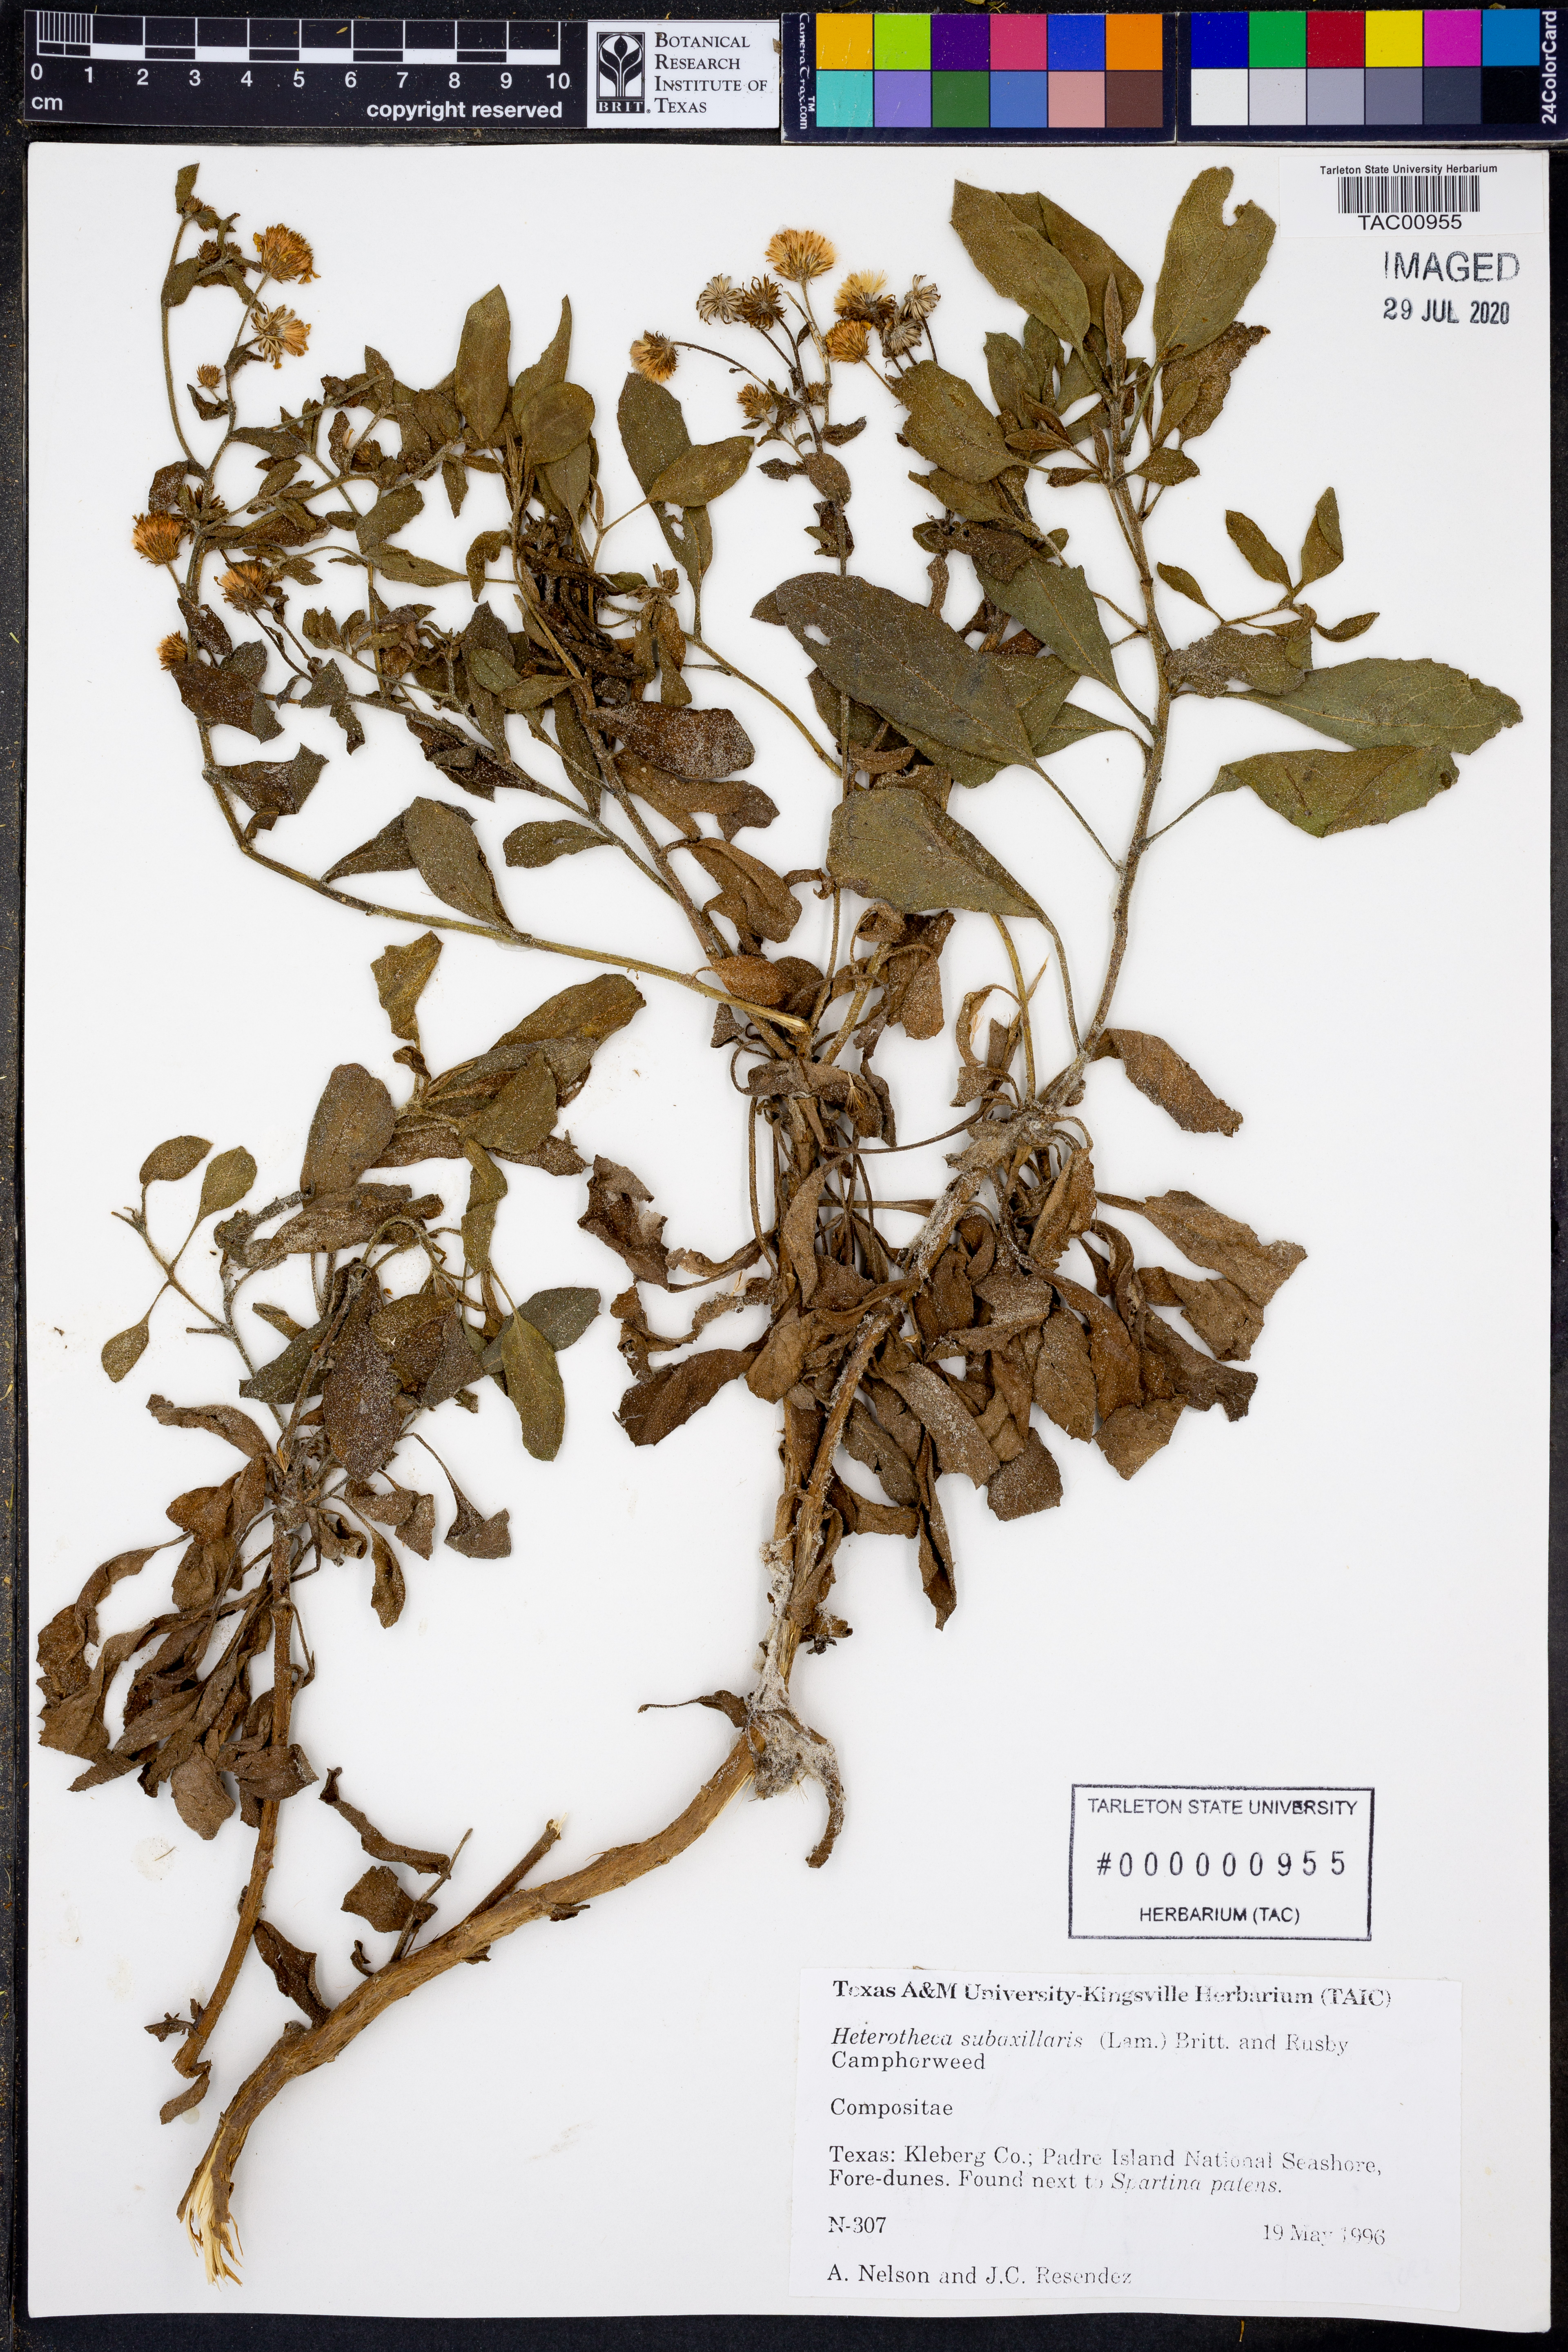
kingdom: Plantae
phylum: Tracheophyta
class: Magnoliopsida
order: Asterales
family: Asteraceae
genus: Heterotheca
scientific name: Heterotheca subaxillaris
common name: Camphorweed
